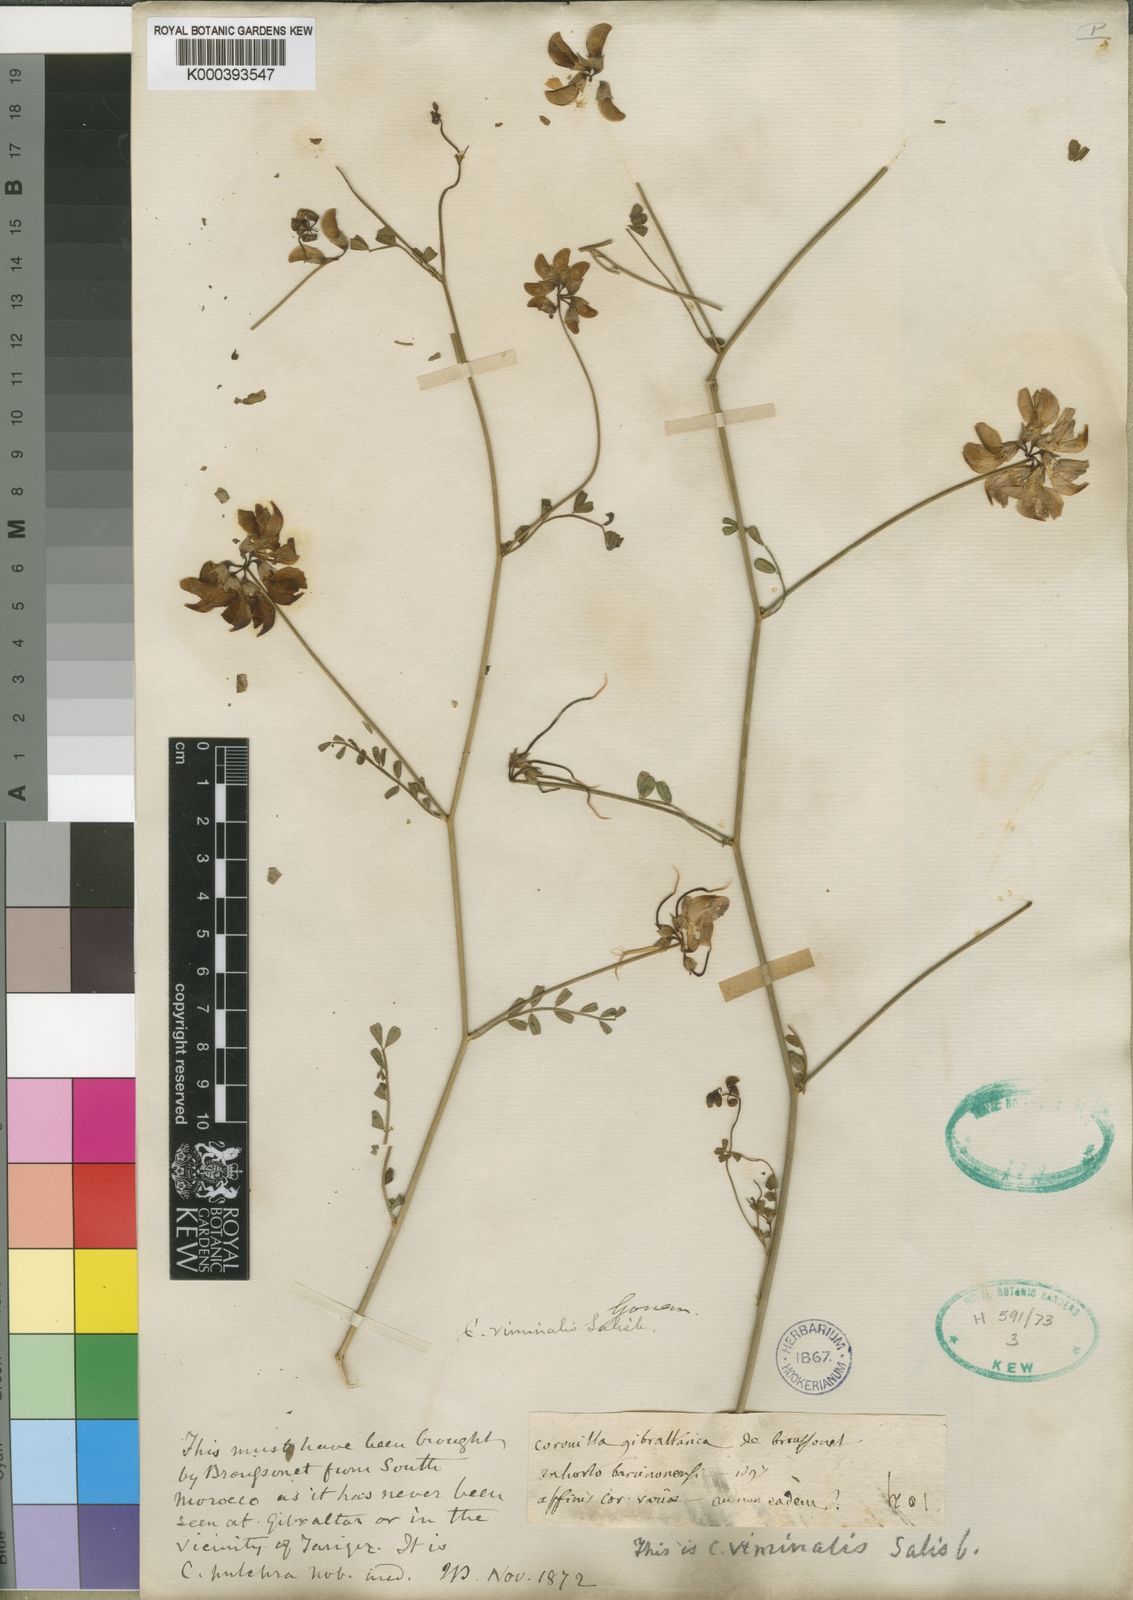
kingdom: Plantae
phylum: Tracheophyta
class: Magnoliopsida
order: Fabales
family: Fabaceae
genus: Coronilla
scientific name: Coronilla viminalis
